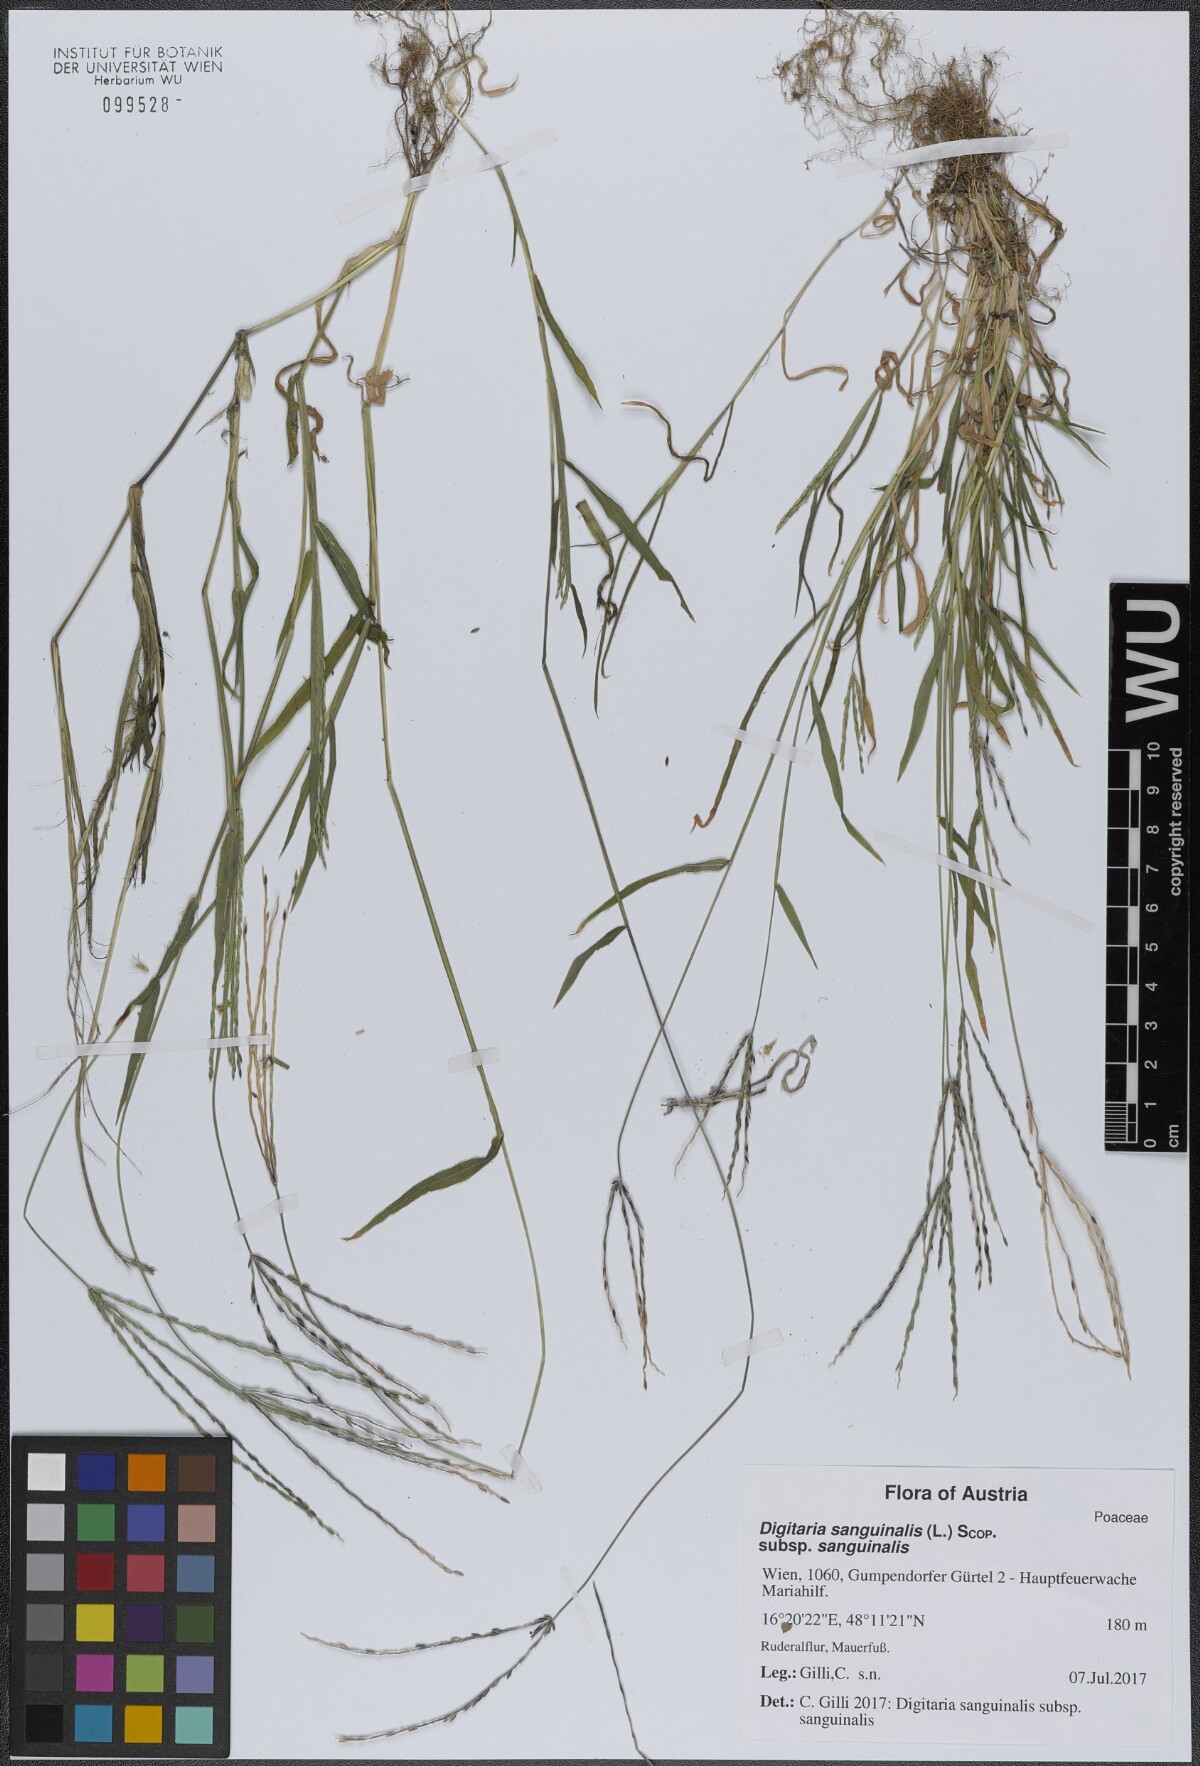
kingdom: Plantae
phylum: Tracheophyta
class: Liliopsida
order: Poales
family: Poaceae
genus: Digitaria
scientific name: Digitaria sanguinalis
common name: Hairy crabgrass
